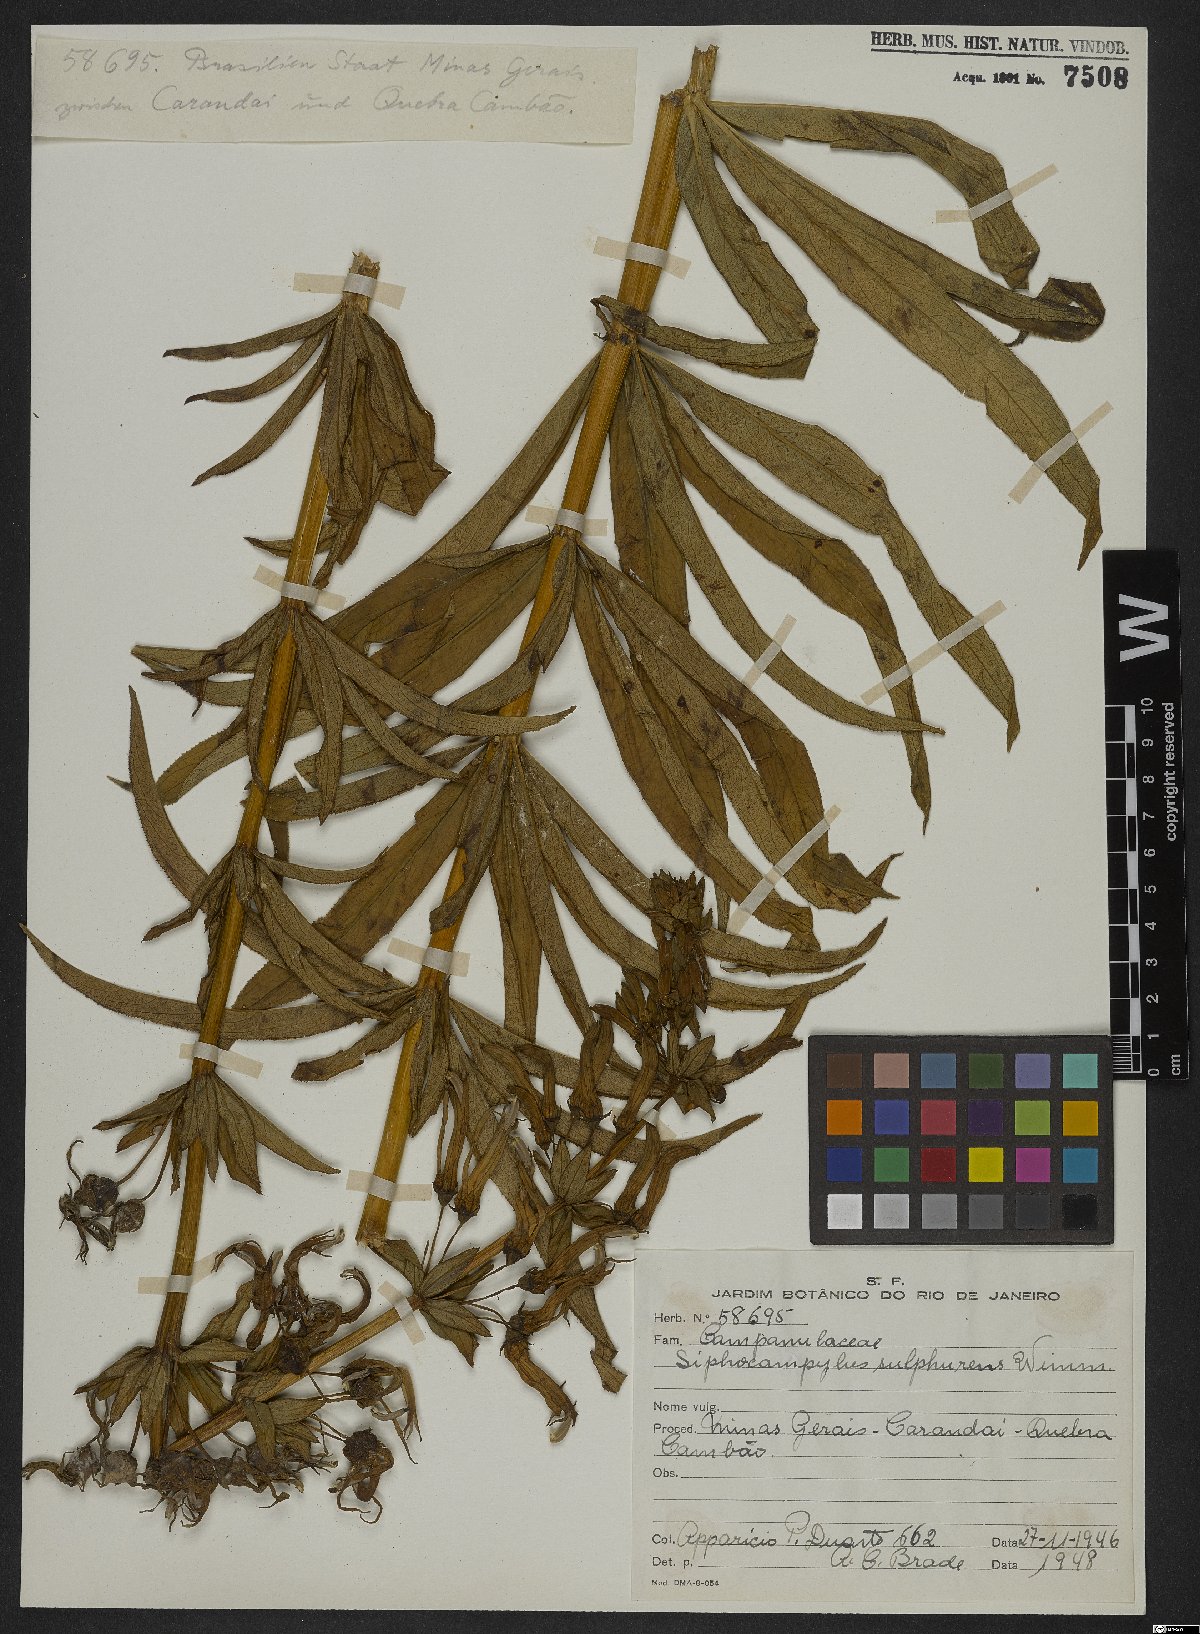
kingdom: Plantae
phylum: Tracheophyta
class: Magnoliopsida
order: Asterales
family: Campanulaceae
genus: Siphocampylus
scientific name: Siphocampylus sulfureus
